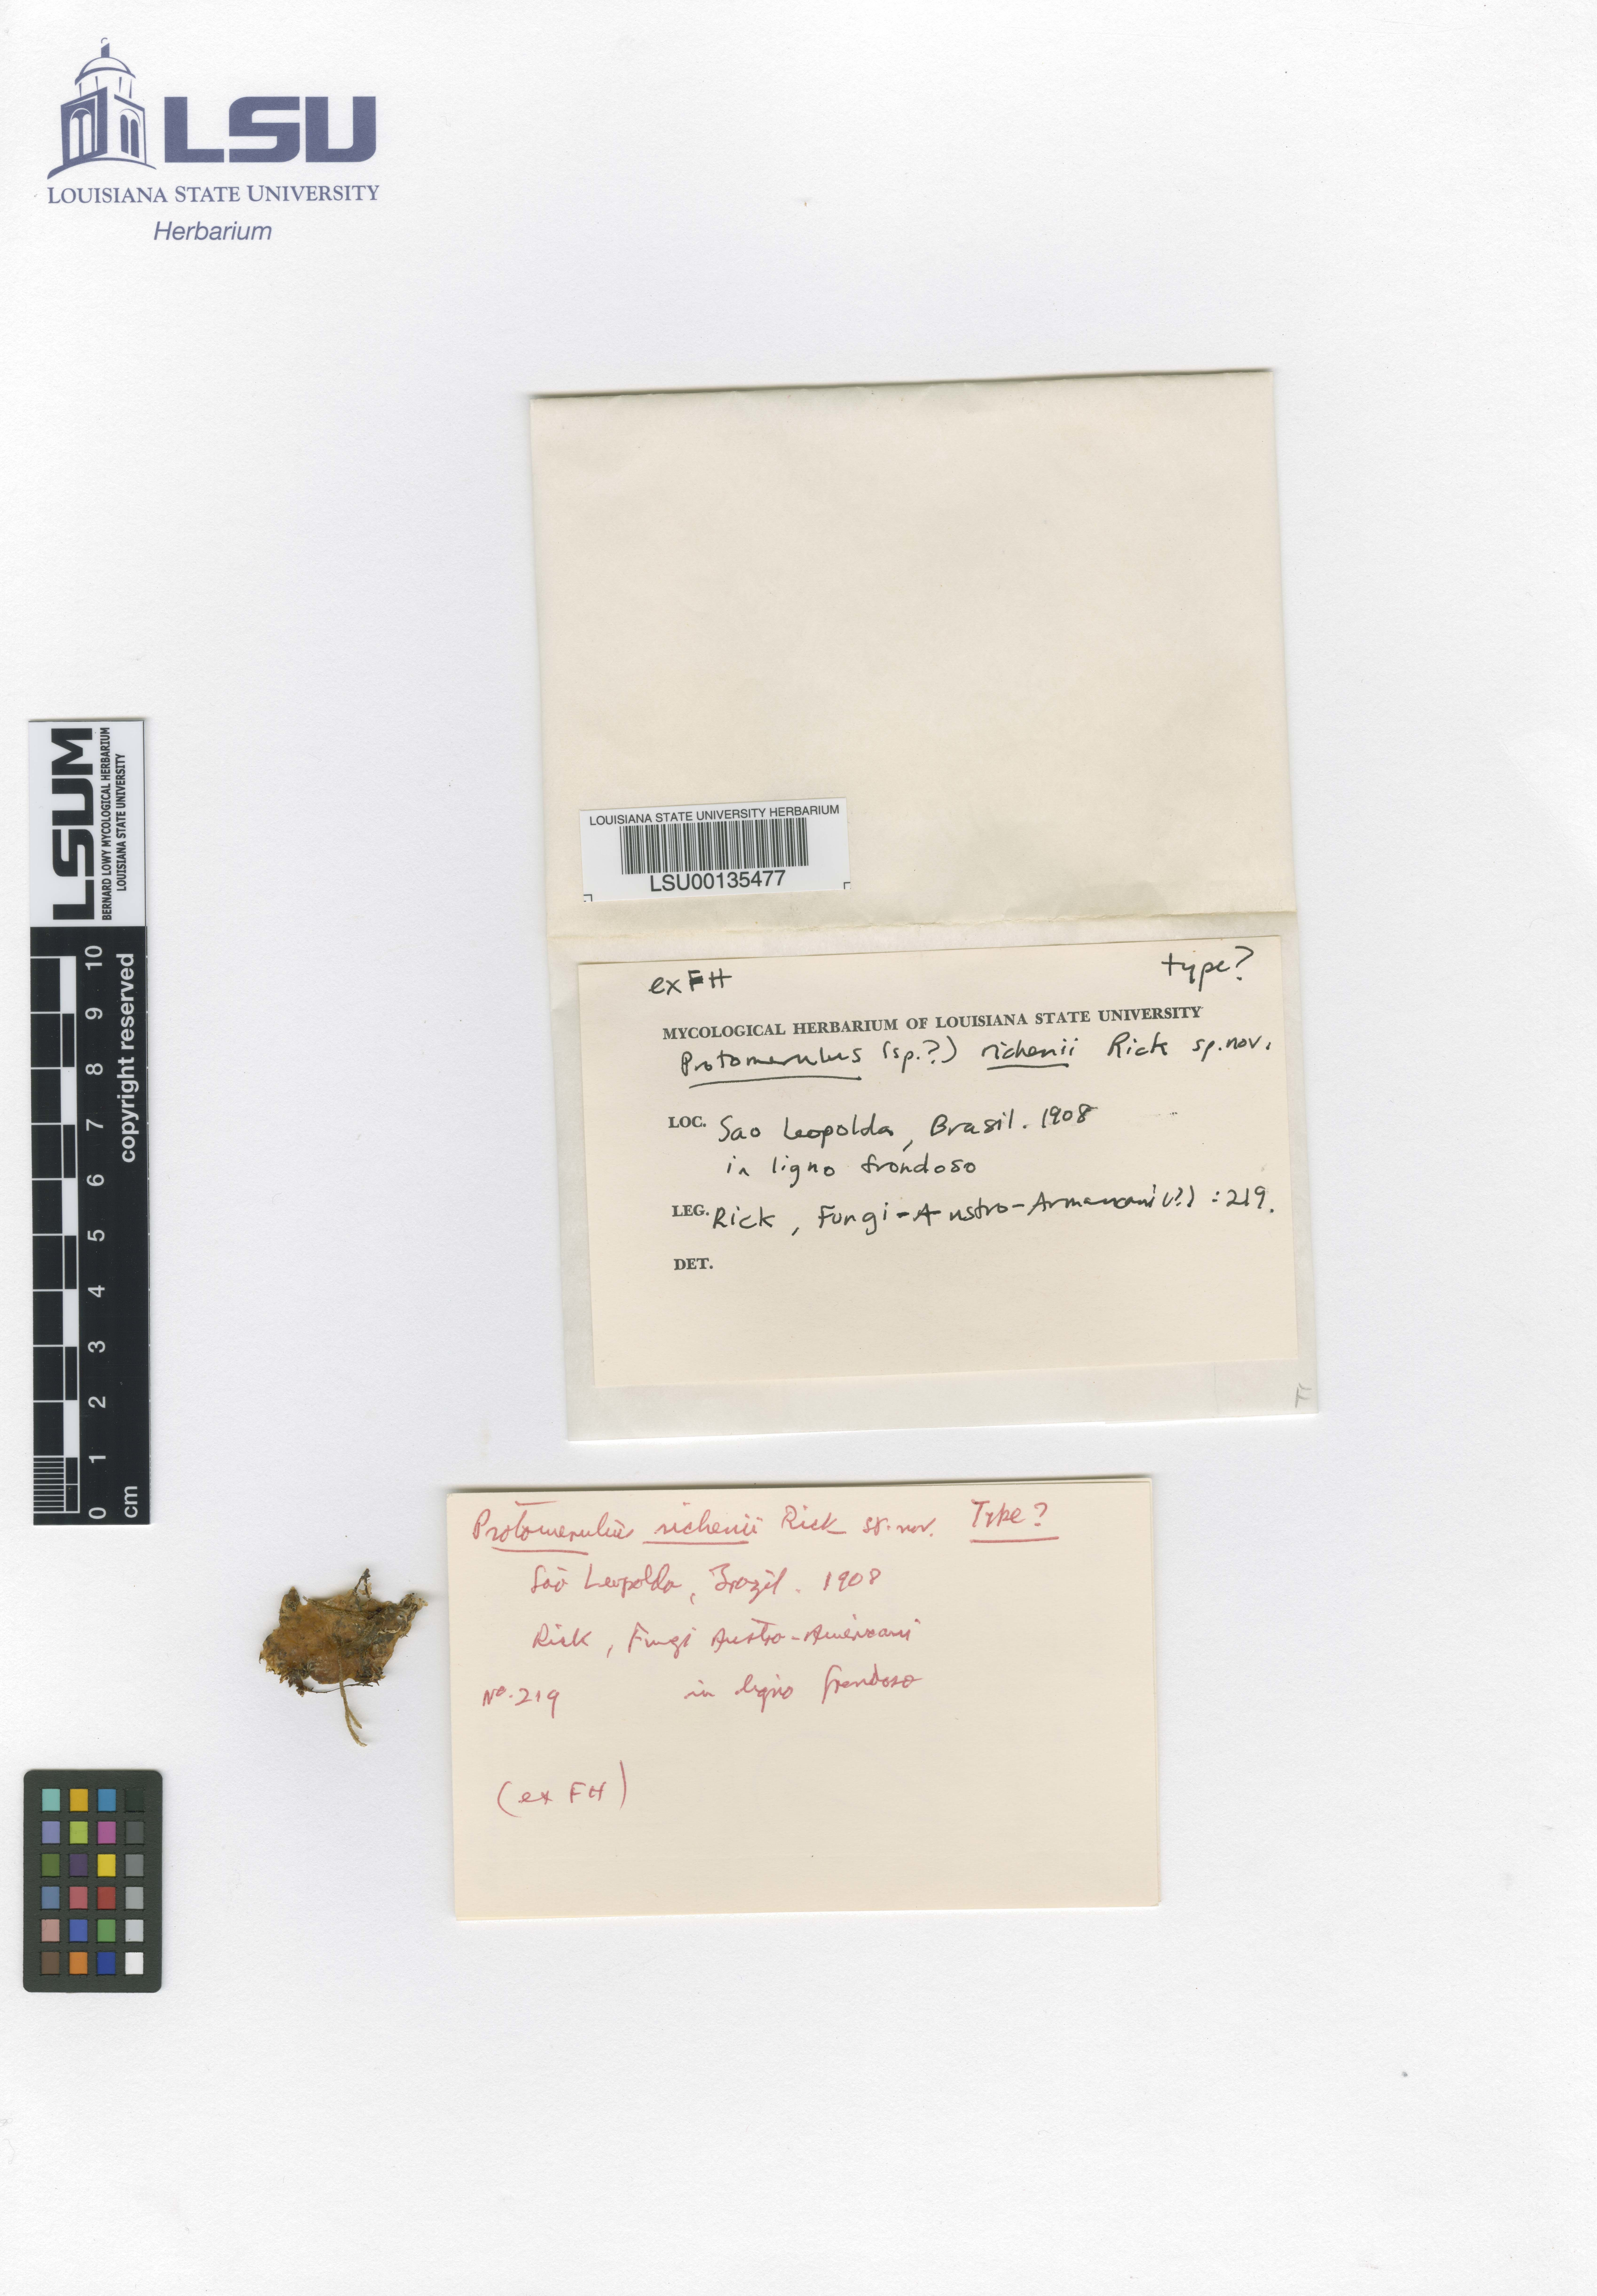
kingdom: Fungi
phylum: Basidiomycota
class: Agaricomycetes
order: Auriculariales
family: Hyaloriaceae
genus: Protomerulius
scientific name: Protomerulius richenii
